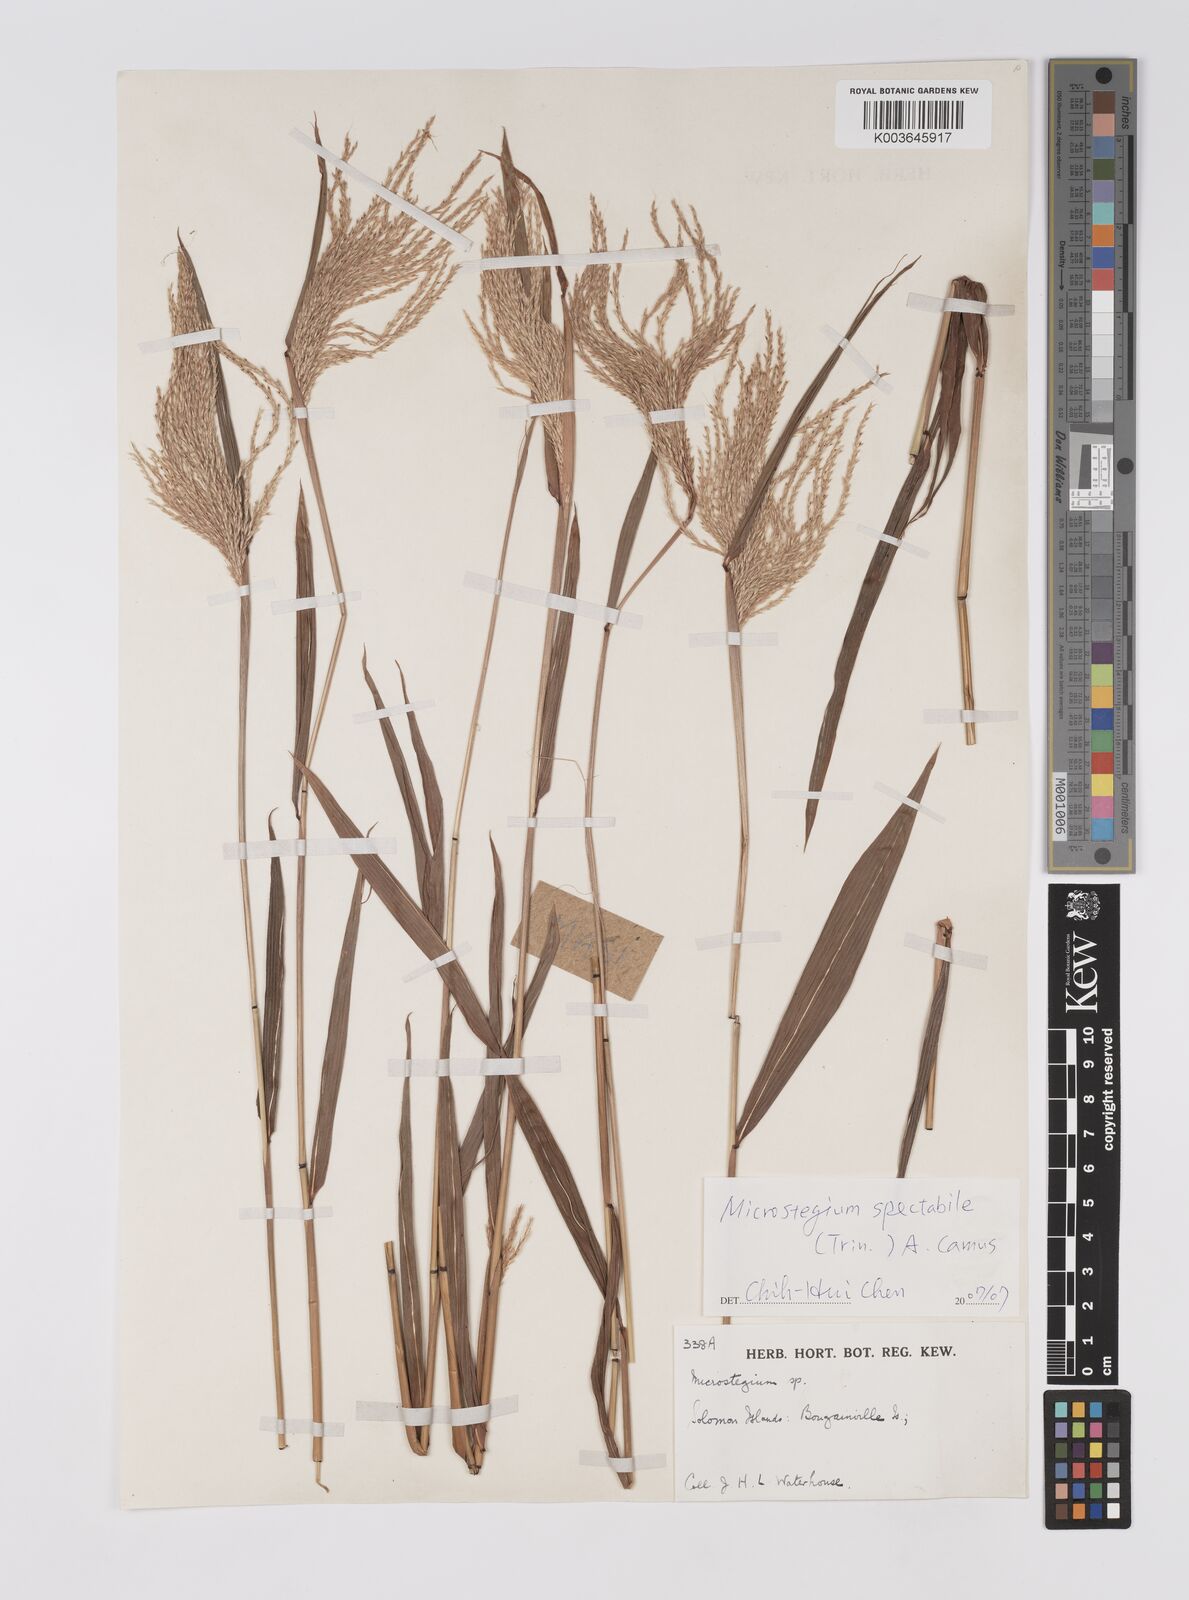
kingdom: Plantae
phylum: Tracheophyta
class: Liliopsida
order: Poales
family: Poaceae
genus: Microstegium
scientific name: Microstegium spectabile
